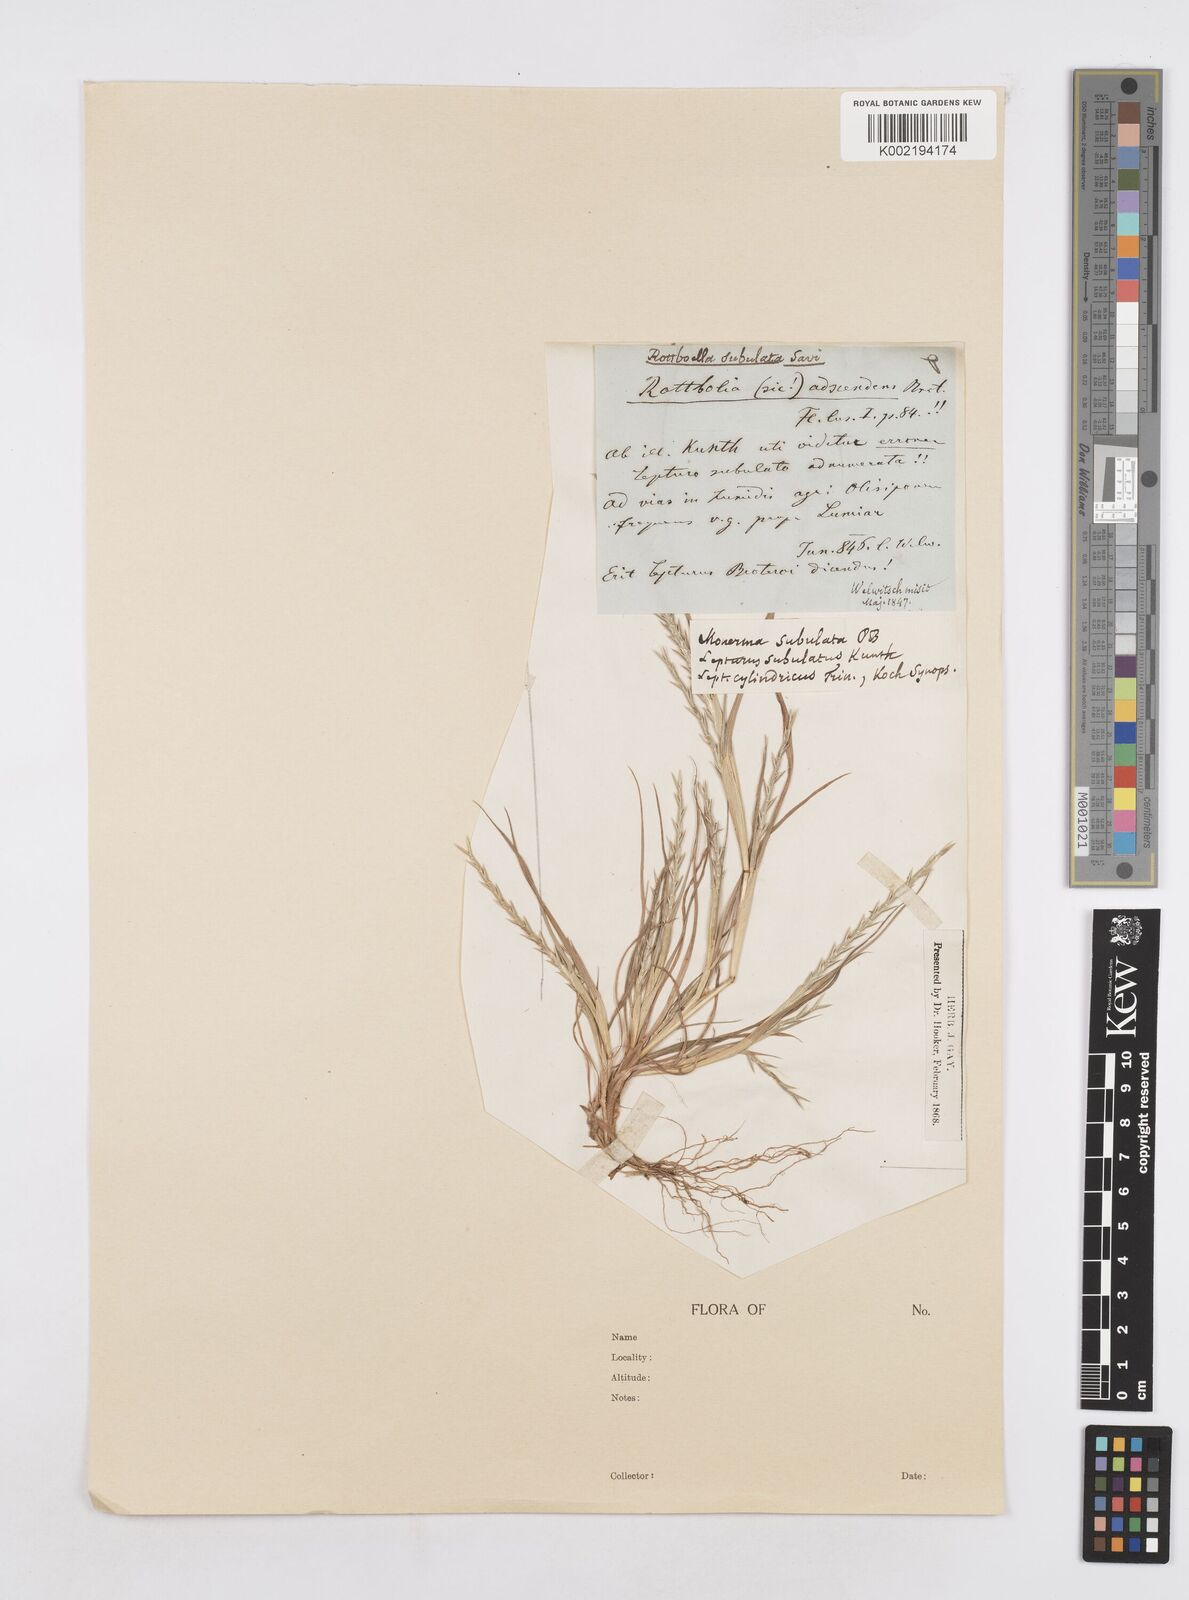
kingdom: Plantae
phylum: Tracheophyta
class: Liliopsida
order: Poales
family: Poaceae
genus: Parapholis
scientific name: Parapholis cylindrica
